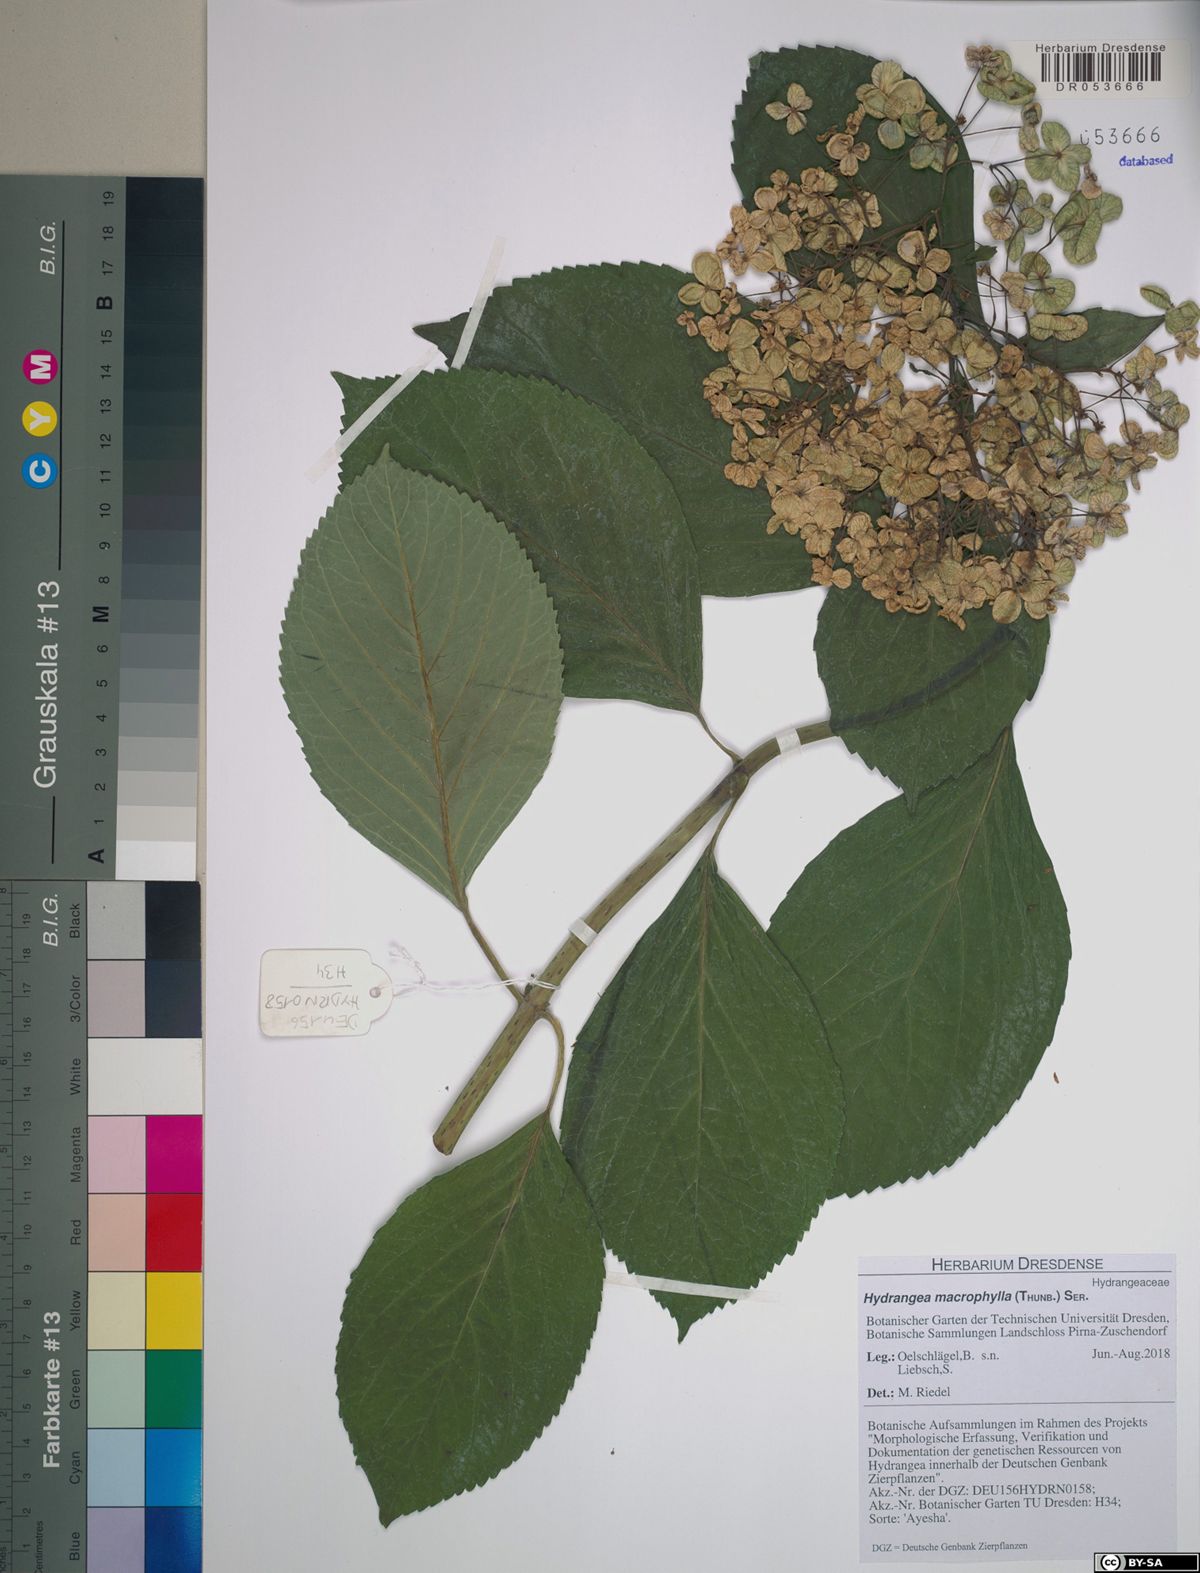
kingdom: Plantae
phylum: Tracheophyta
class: Magnoliopsida
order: Cornales
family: Hydrangeaceae
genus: Hydrangea
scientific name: Hydrangea macrophylla
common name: Hydrangea
